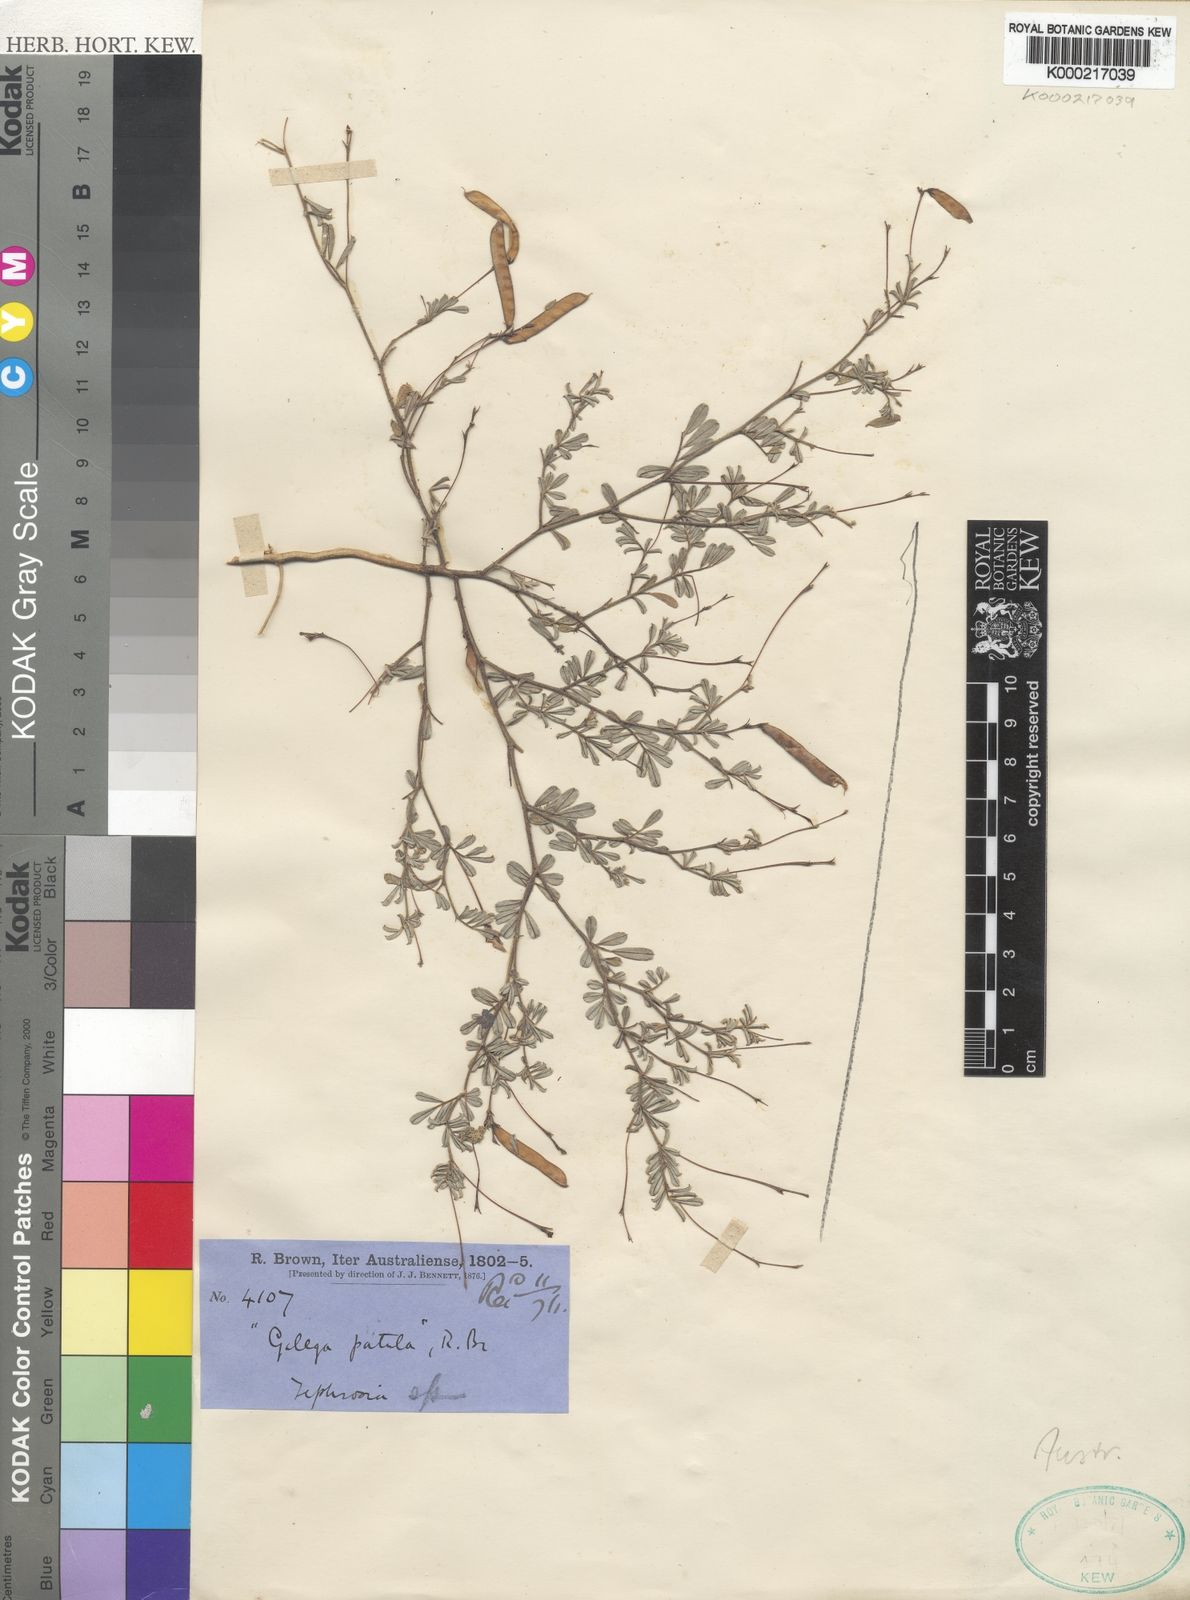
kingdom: Plantae
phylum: Tracheophyta
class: Magnoliopsida
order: Fabales
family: Fabaceae
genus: Tephrosia
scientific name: Tephrosia
